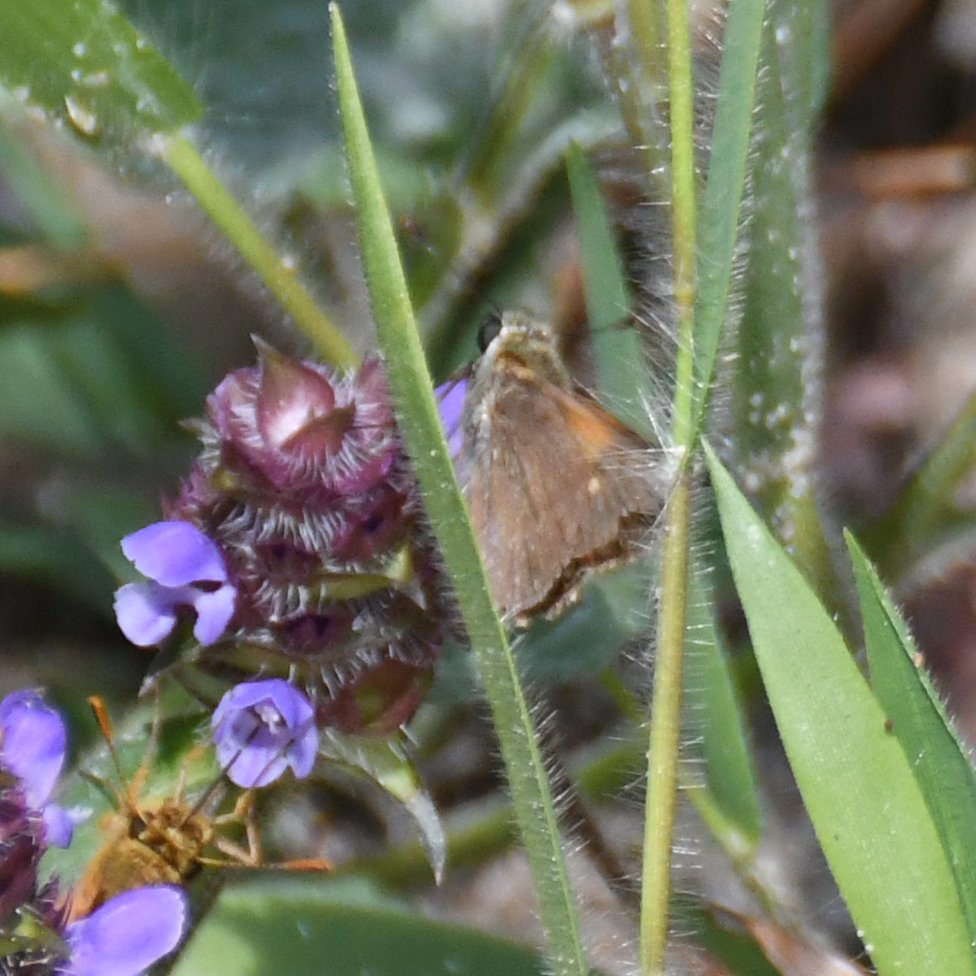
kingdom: Animalia
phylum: Arthropoda
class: Insecta
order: Lepidoptera
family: Hesperiidae
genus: Polites
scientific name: Polites themistocles
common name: Tawny-edged Skipper
